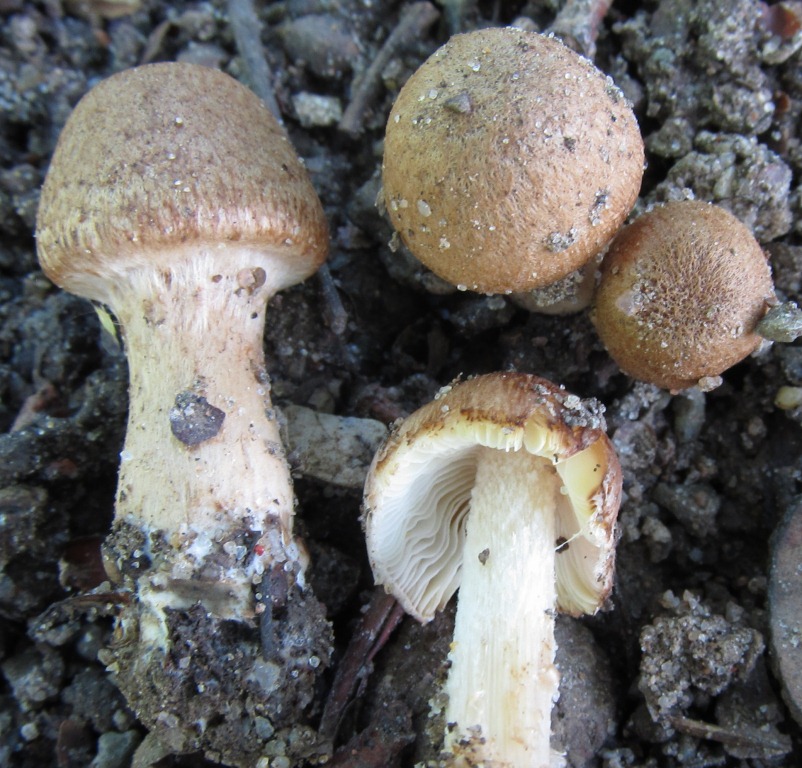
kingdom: Fungi
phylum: Basidiomycota
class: Agaricomycetes
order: Agaricales
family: Inocybaceae
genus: Inocybe
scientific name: Inocybe dulcamara
